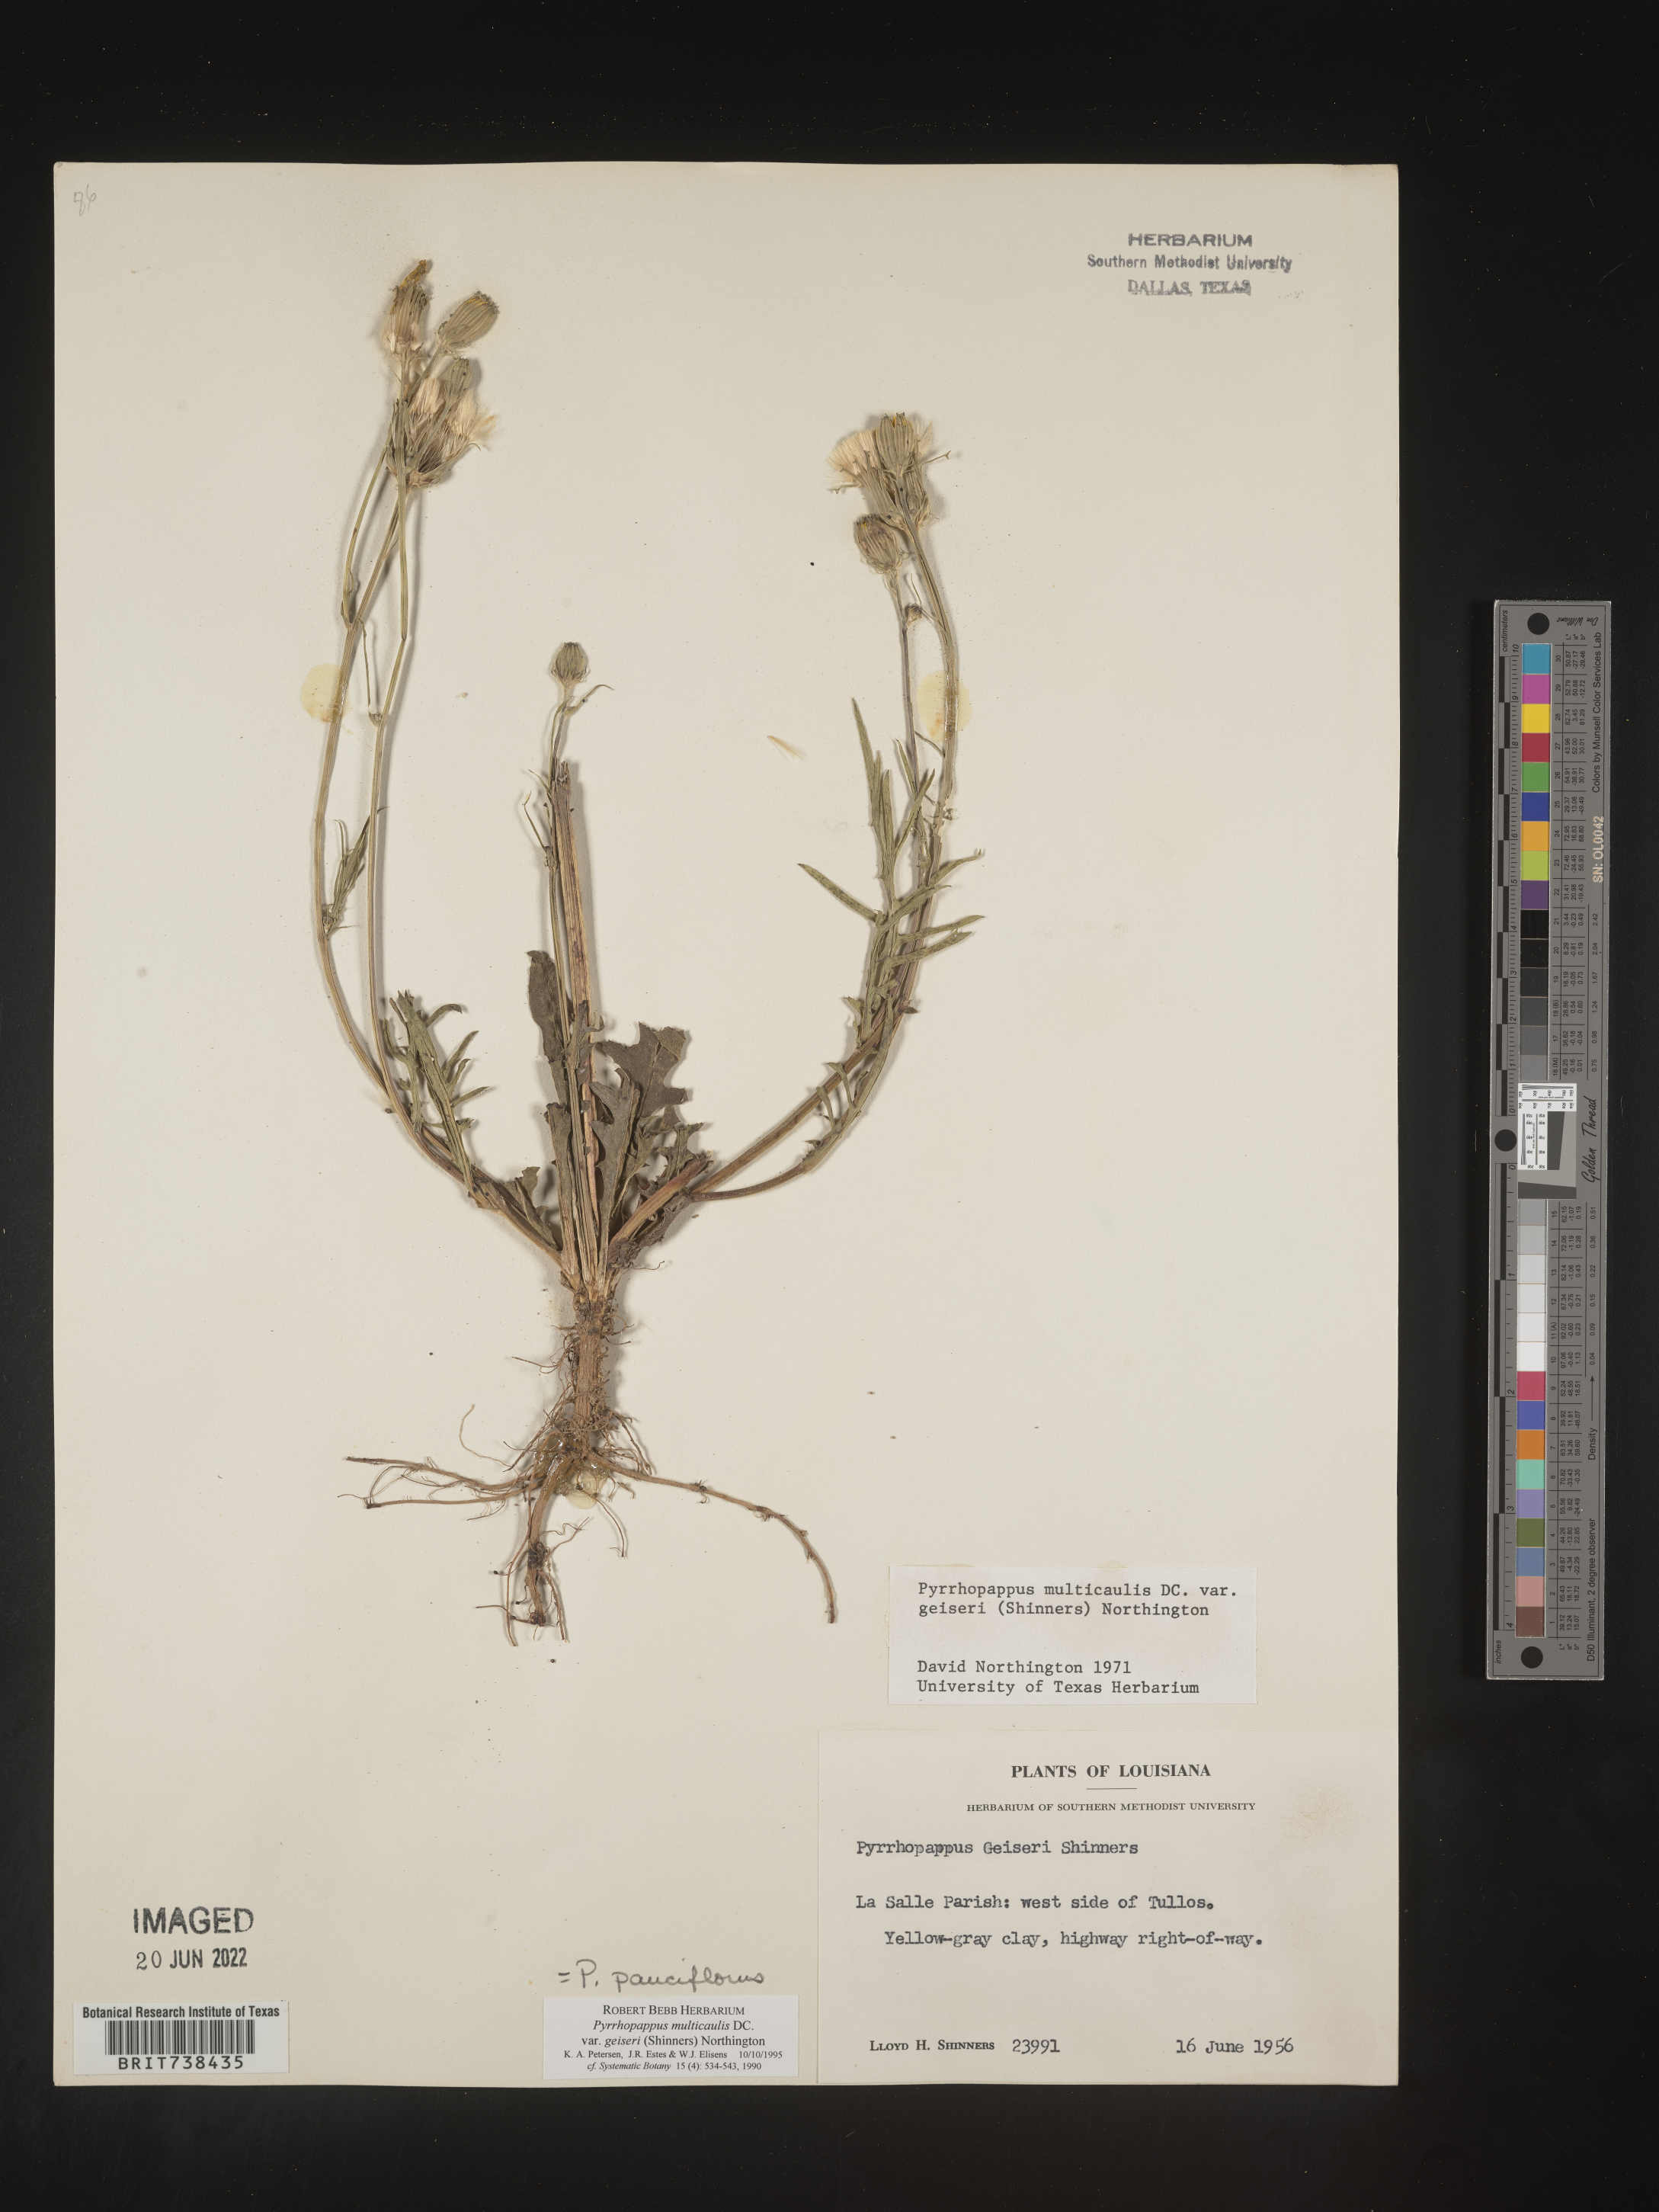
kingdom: Plantae
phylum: Tracheophyta
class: Magnoliopsida
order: Asterales
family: Asteraceae
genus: Pyrrhopappus
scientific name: Pyrrhopappus pauciflorus
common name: Texas false dandelion
